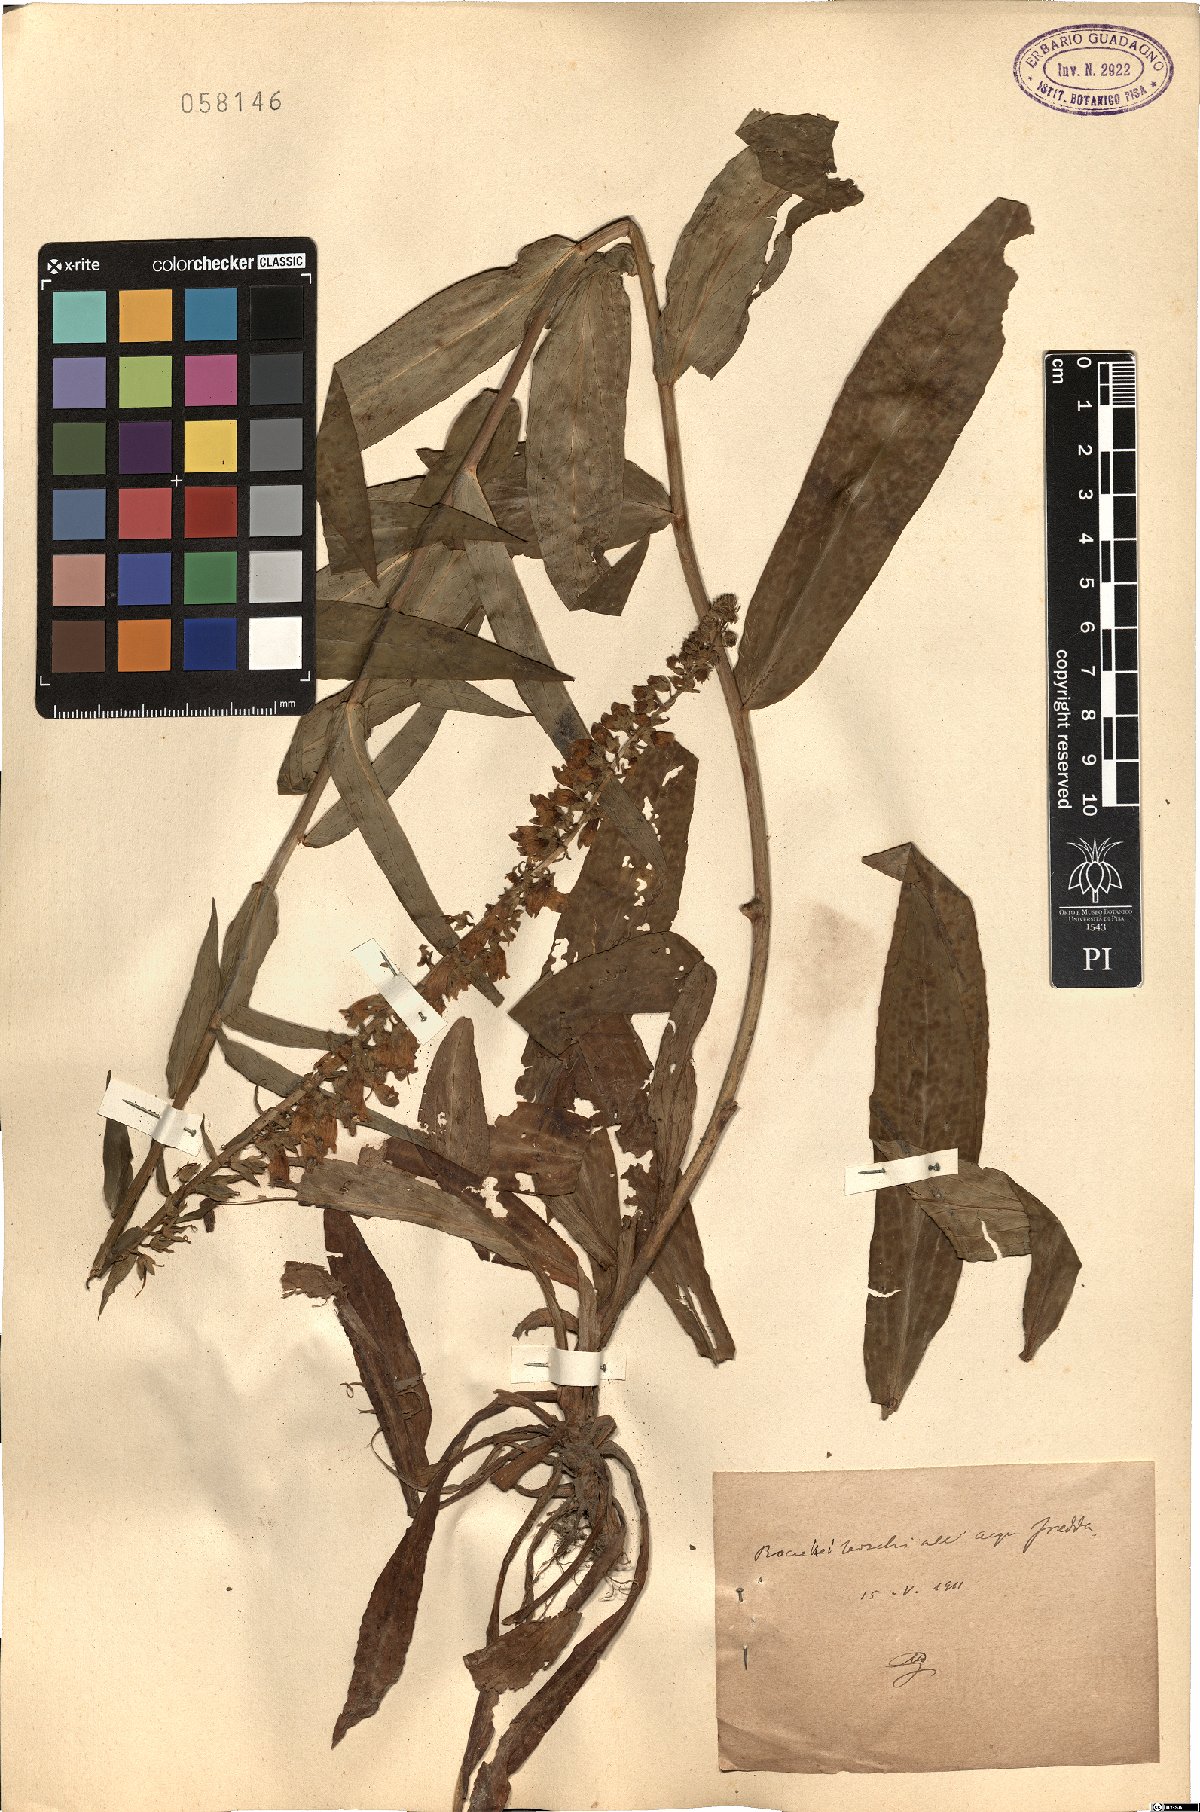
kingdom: Plantae
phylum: Tracheophyta
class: Magnoliopsida
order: Lamiales
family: Plantaginaceae
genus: Digitalis
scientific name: Digitalis
